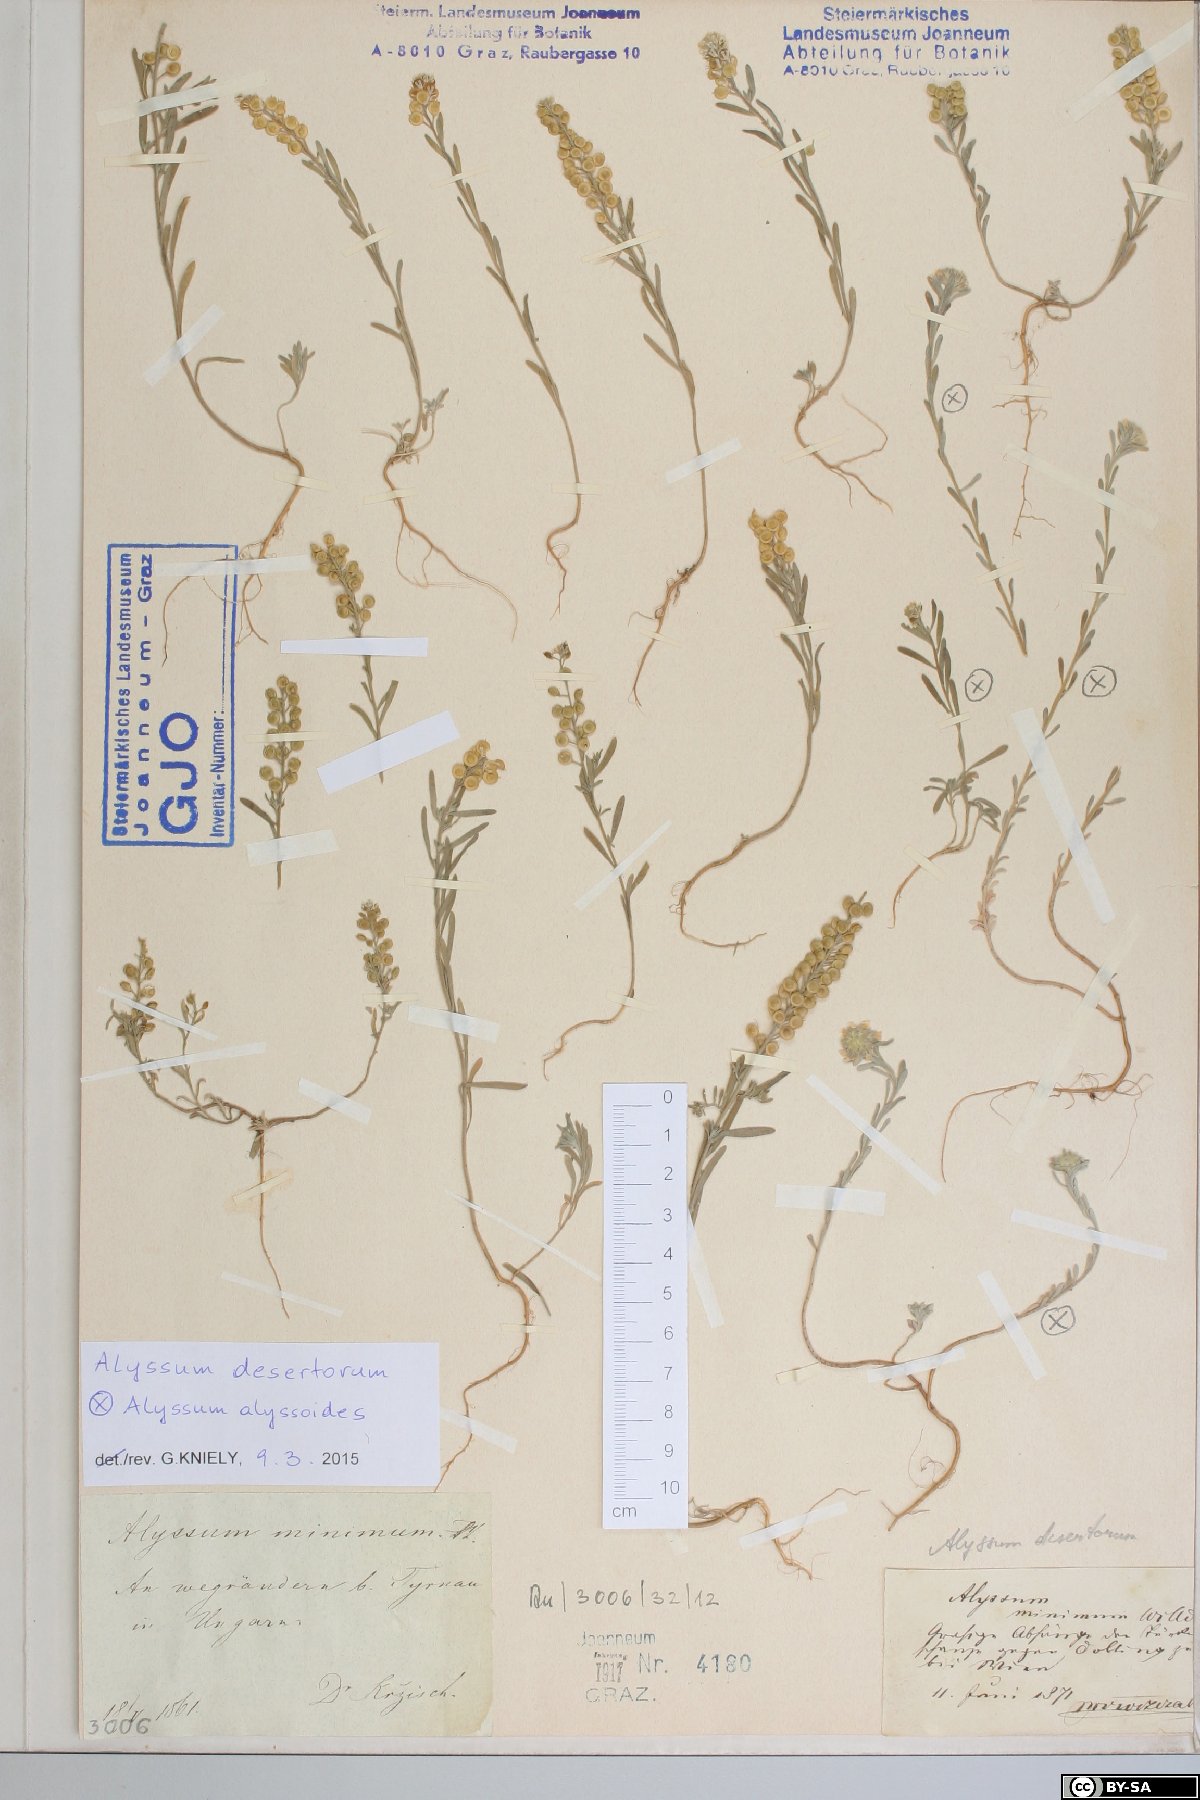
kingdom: Plantae
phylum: Tracheophyta
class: Magnoliopsida
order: Brassicales
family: Brassicaceae
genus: Alyssum
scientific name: Alyssum turkestanicum
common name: Desert alyssum
